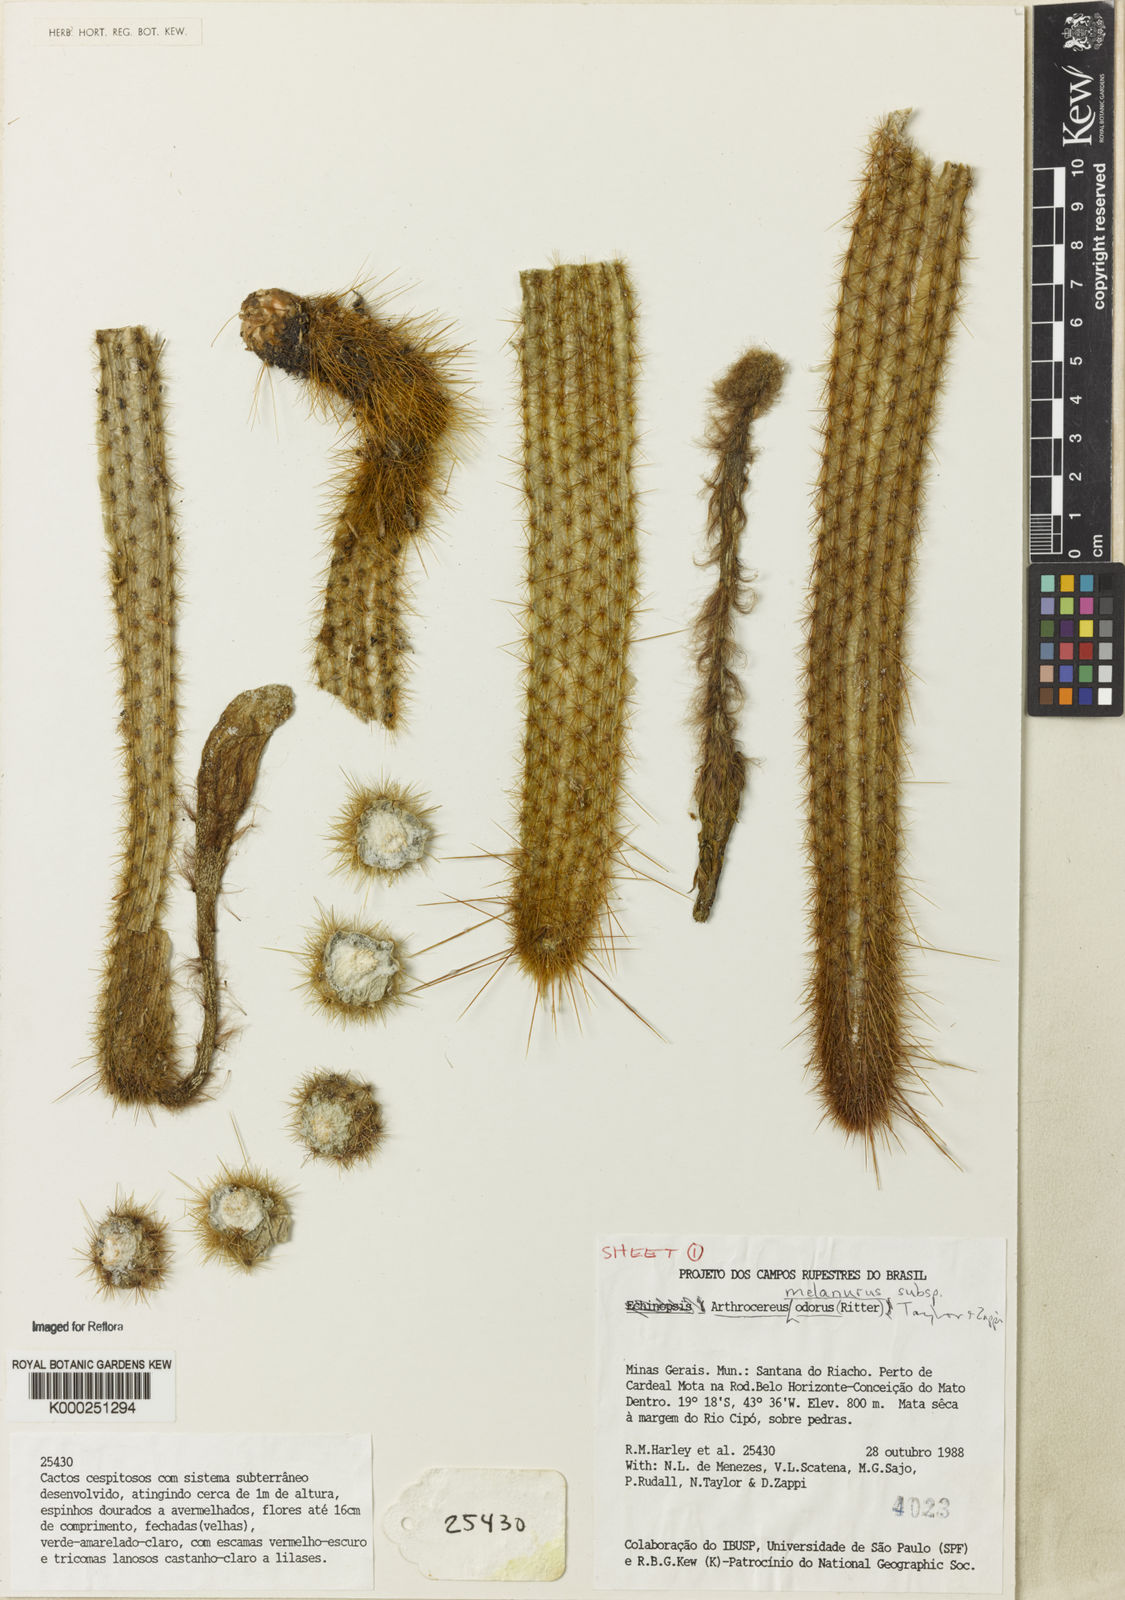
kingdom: Plantae
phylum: Tracheophyta
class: Magnoliopsida
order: Caryophyllales
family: Cactaceae
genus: Arthrocereus
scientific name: Arthrocereus melanurus
